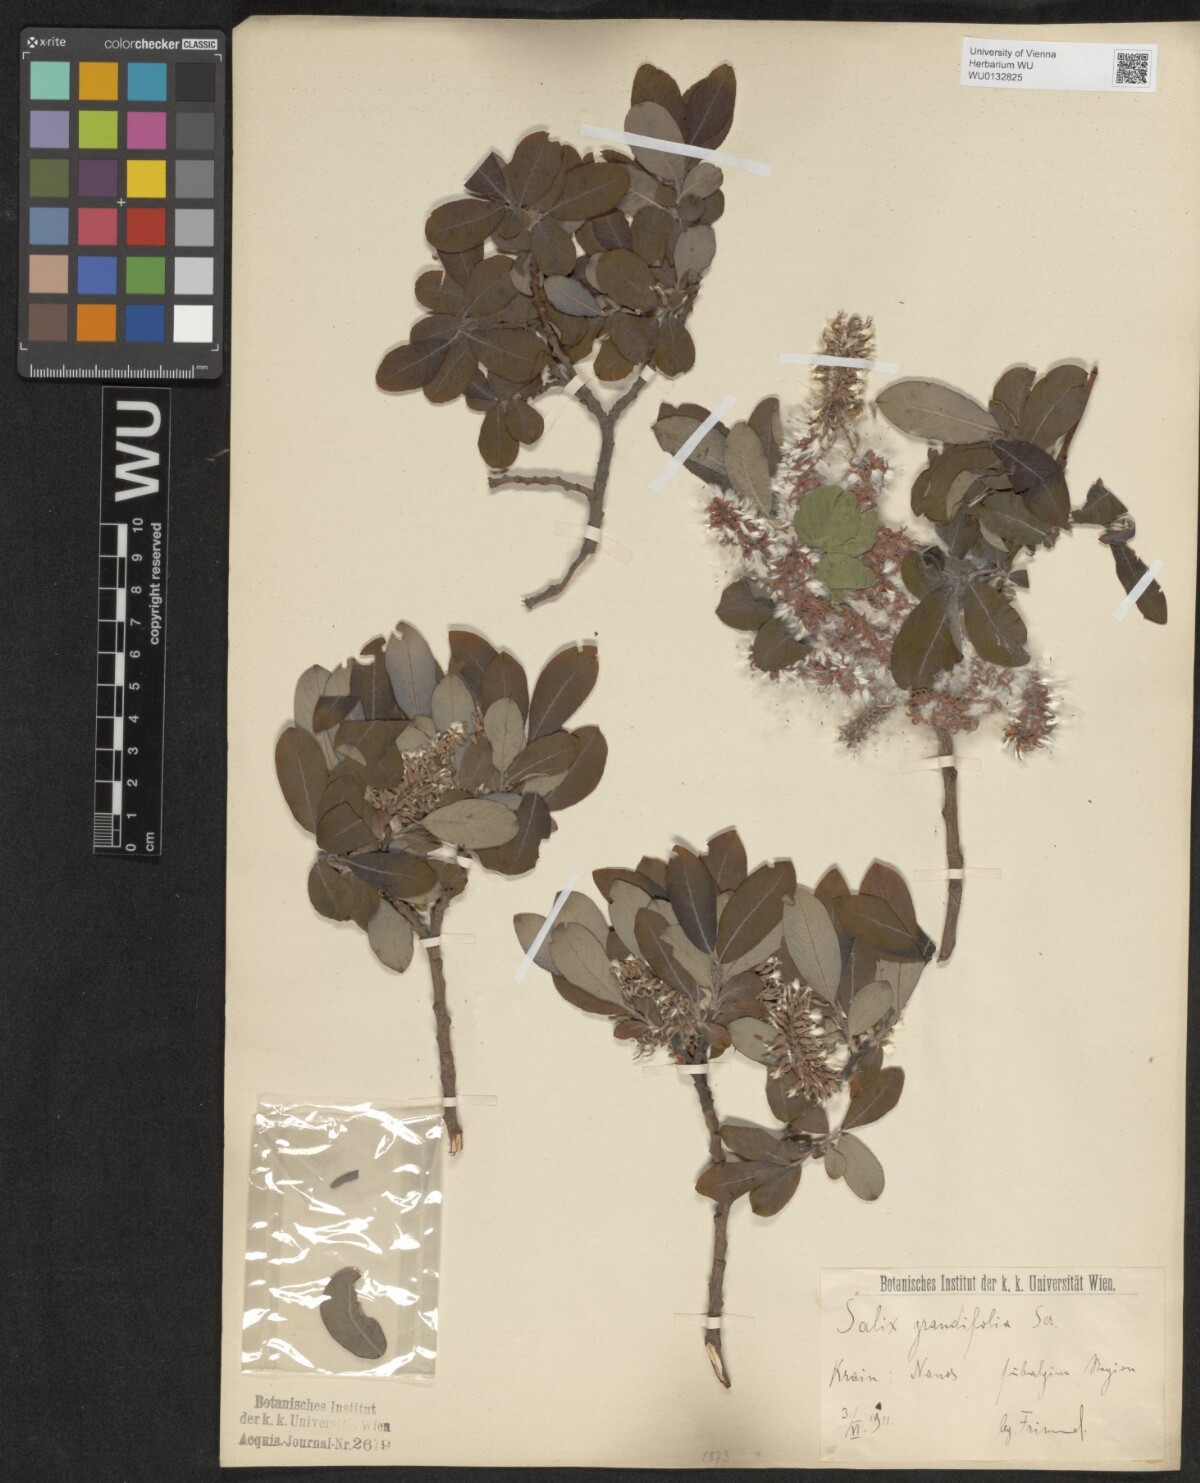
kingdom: Plantae
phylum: Tracheophyta
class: Magnoliopsida
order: Malpighiales
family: Salicaceae
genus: Salix
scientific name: Salix appendiculata
